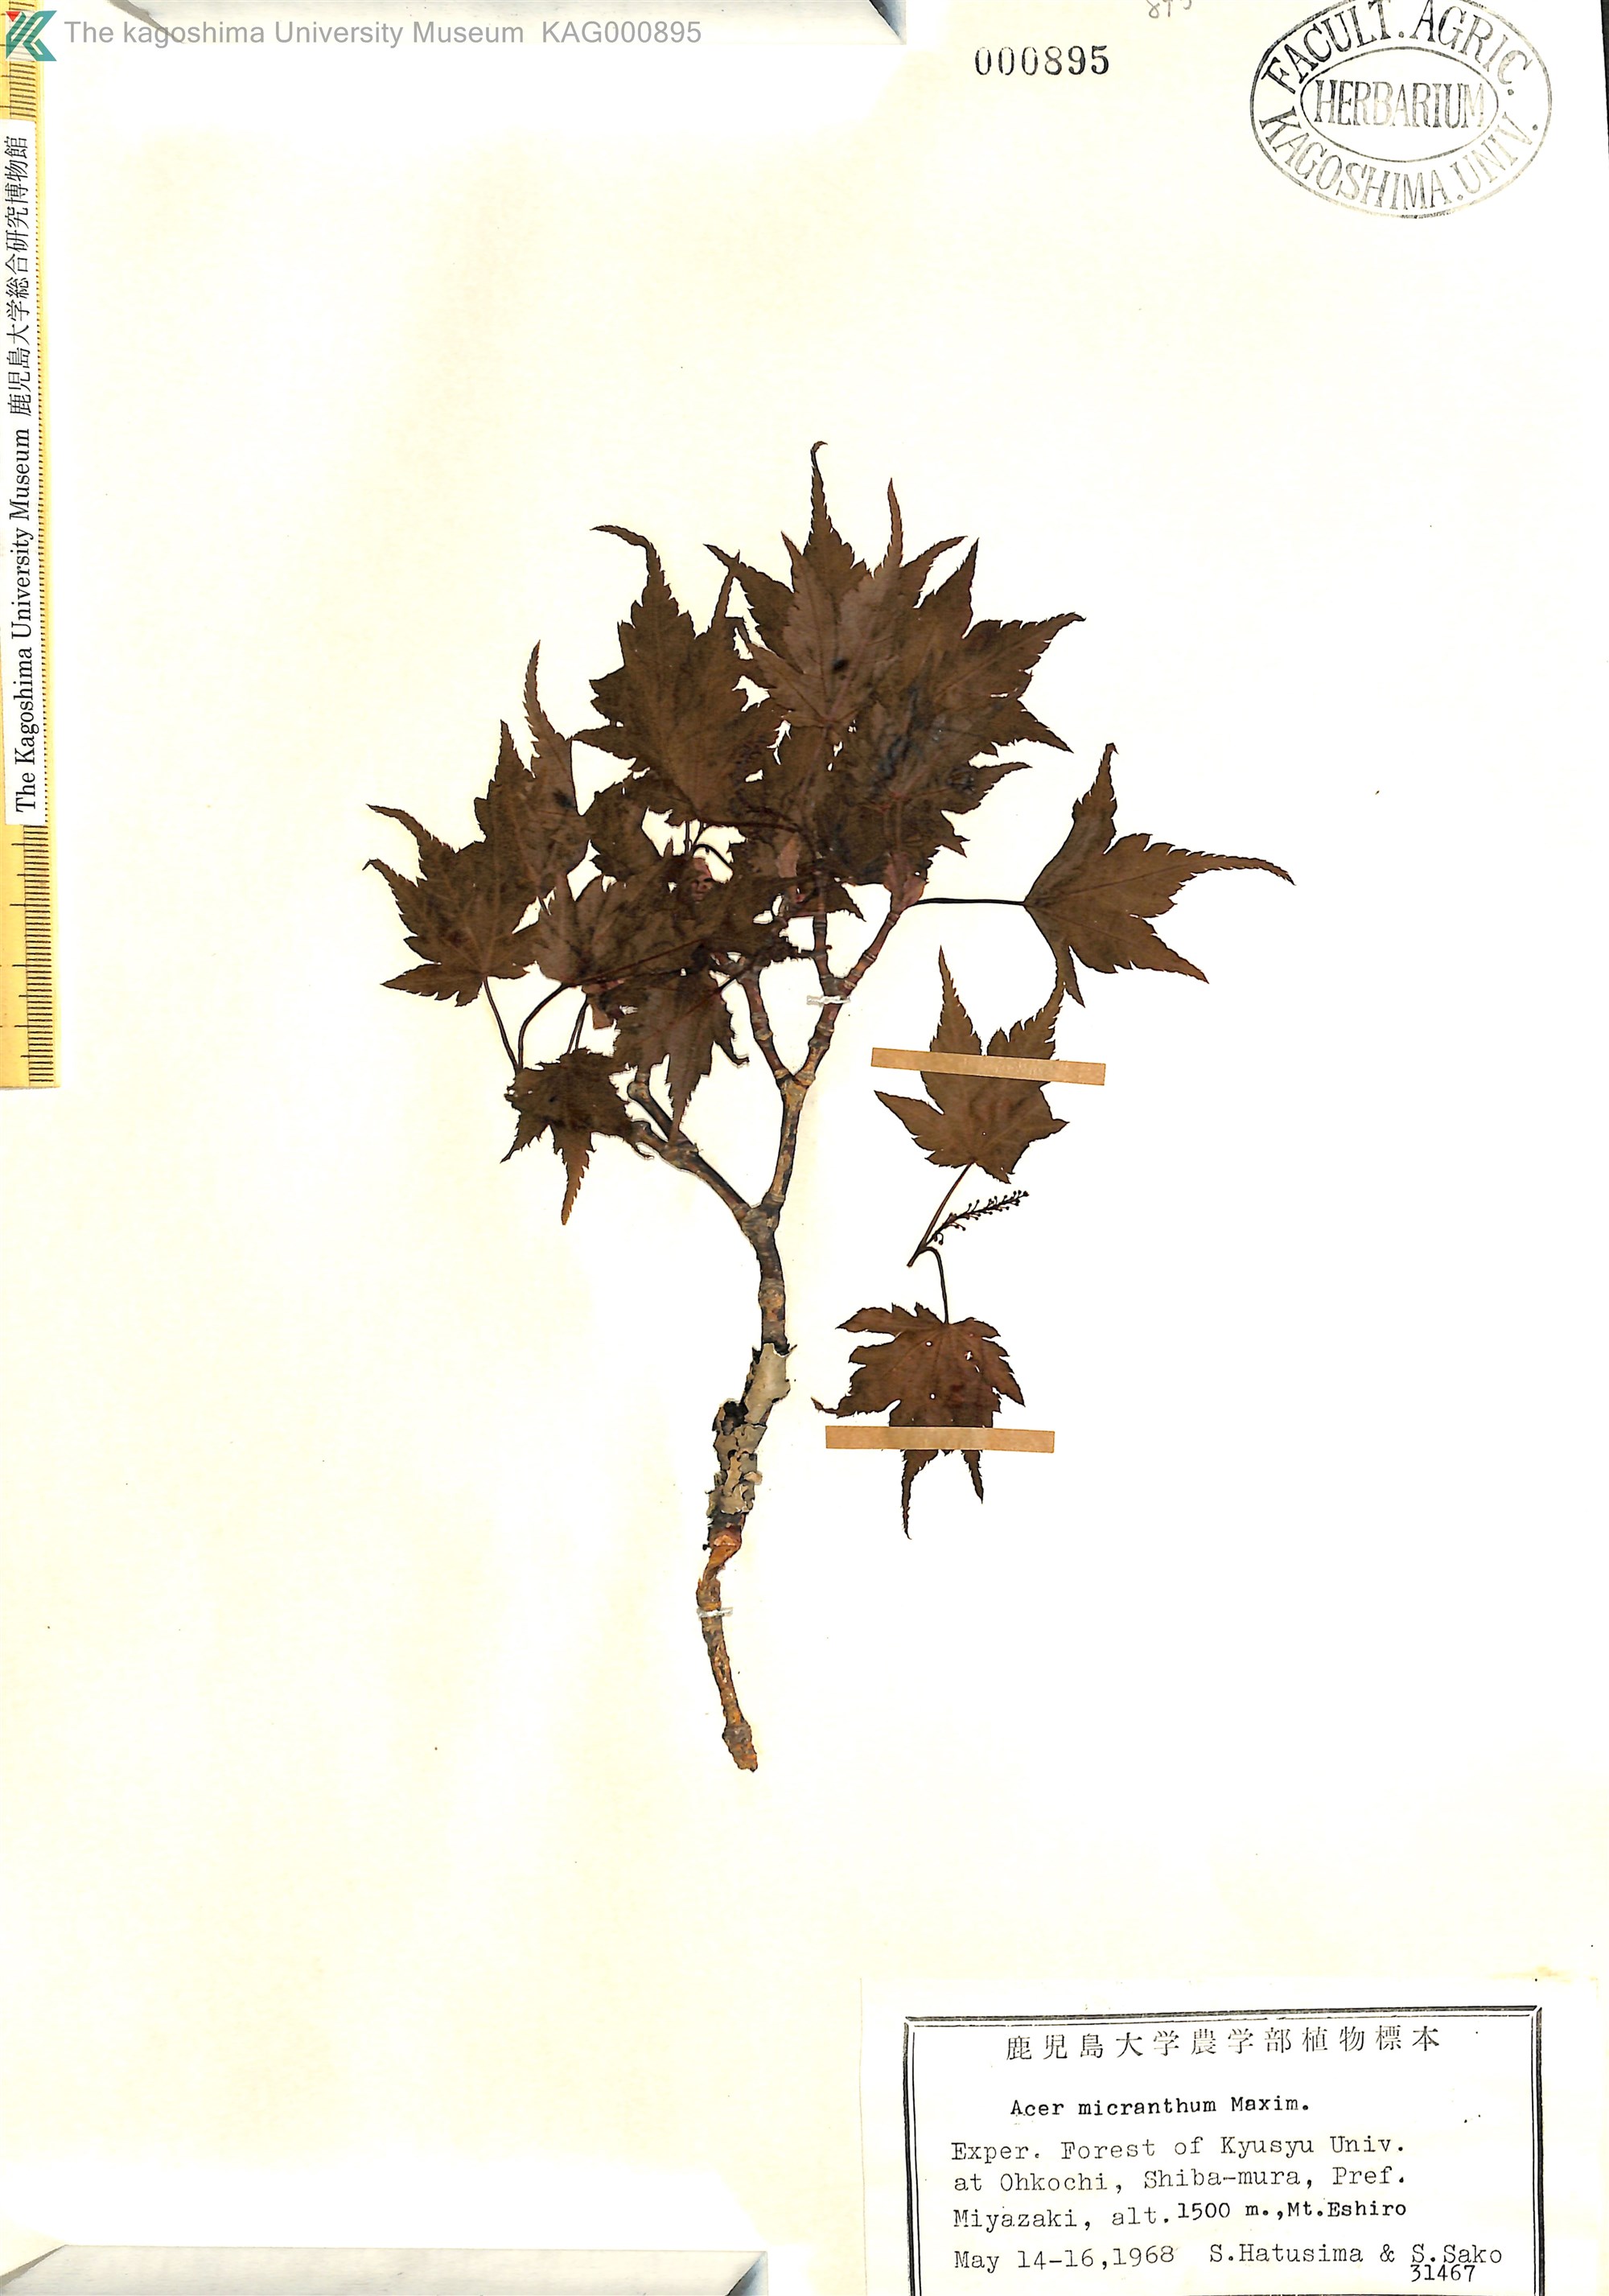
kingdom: Plantae
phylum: Tracheophyta
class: Magnoliopsida
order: Sapindales
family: Sapindaceae
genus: Acer
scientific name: Acer micranthum
